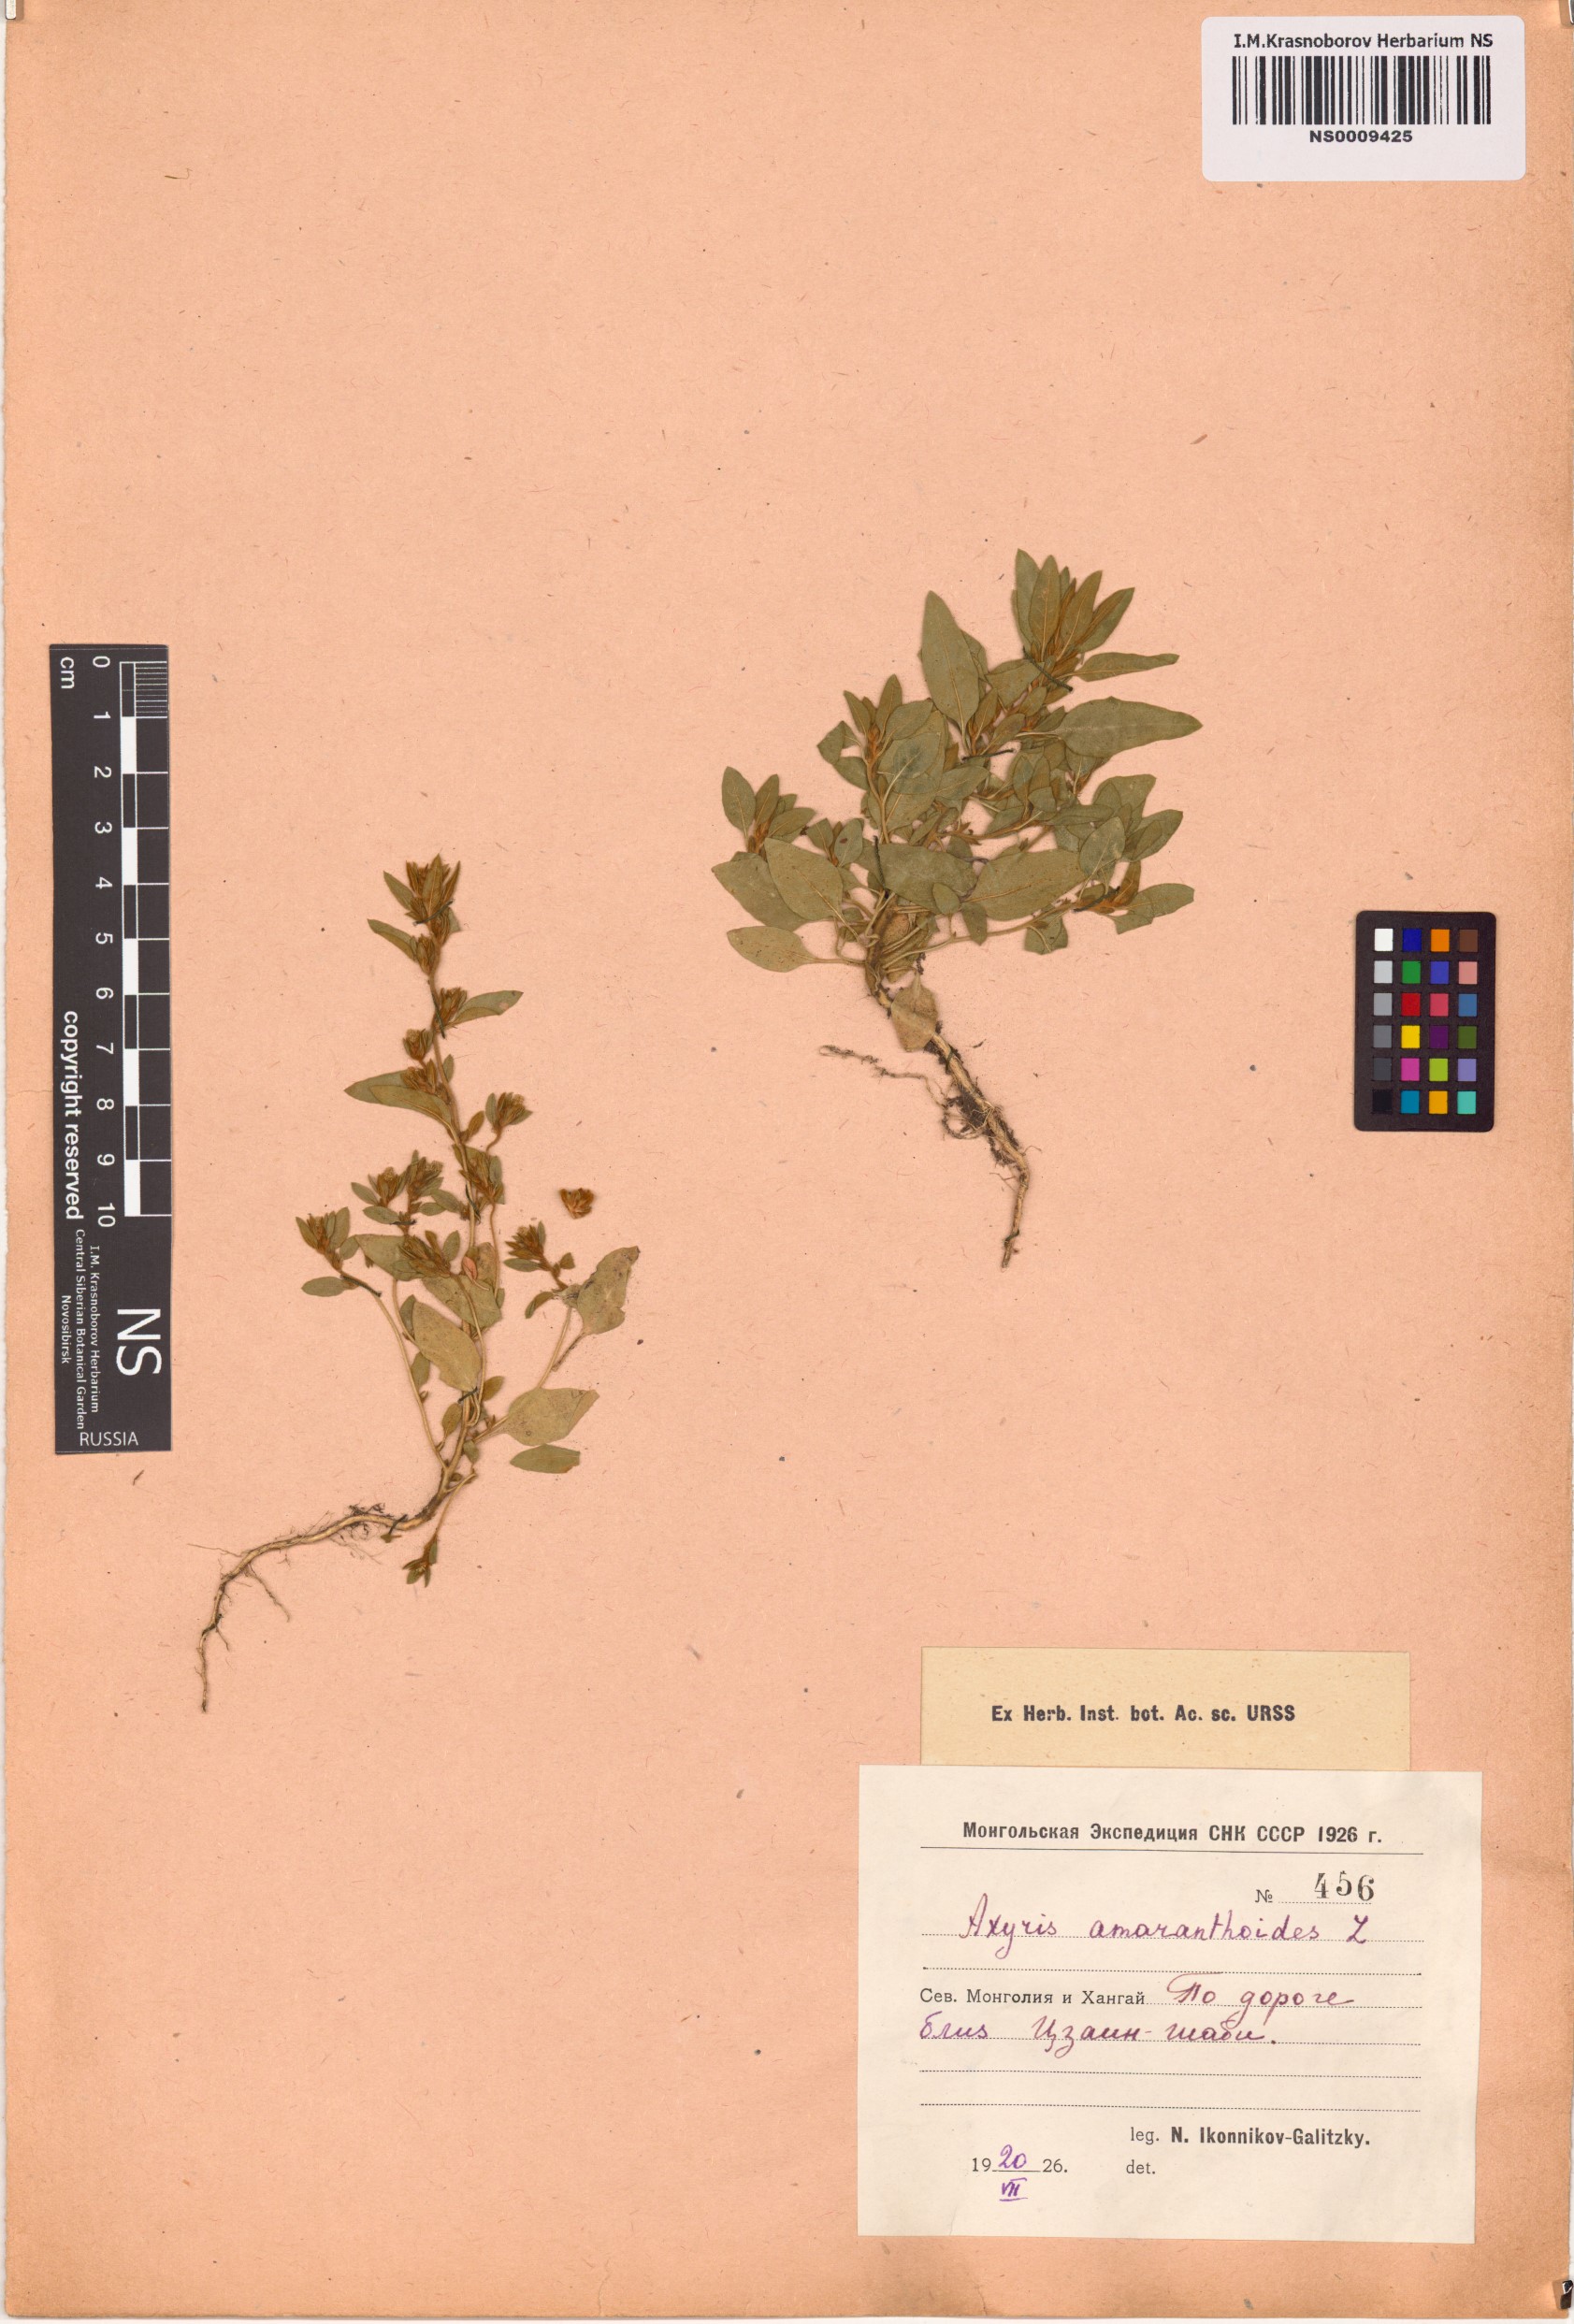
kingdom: Plantae
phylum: Tracheophyta
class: Magnoliopsida
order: Caryophyllales
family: Amaranthaceae
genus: Axyris
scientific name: Axyris amaranthoides
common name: Russian pigweed
